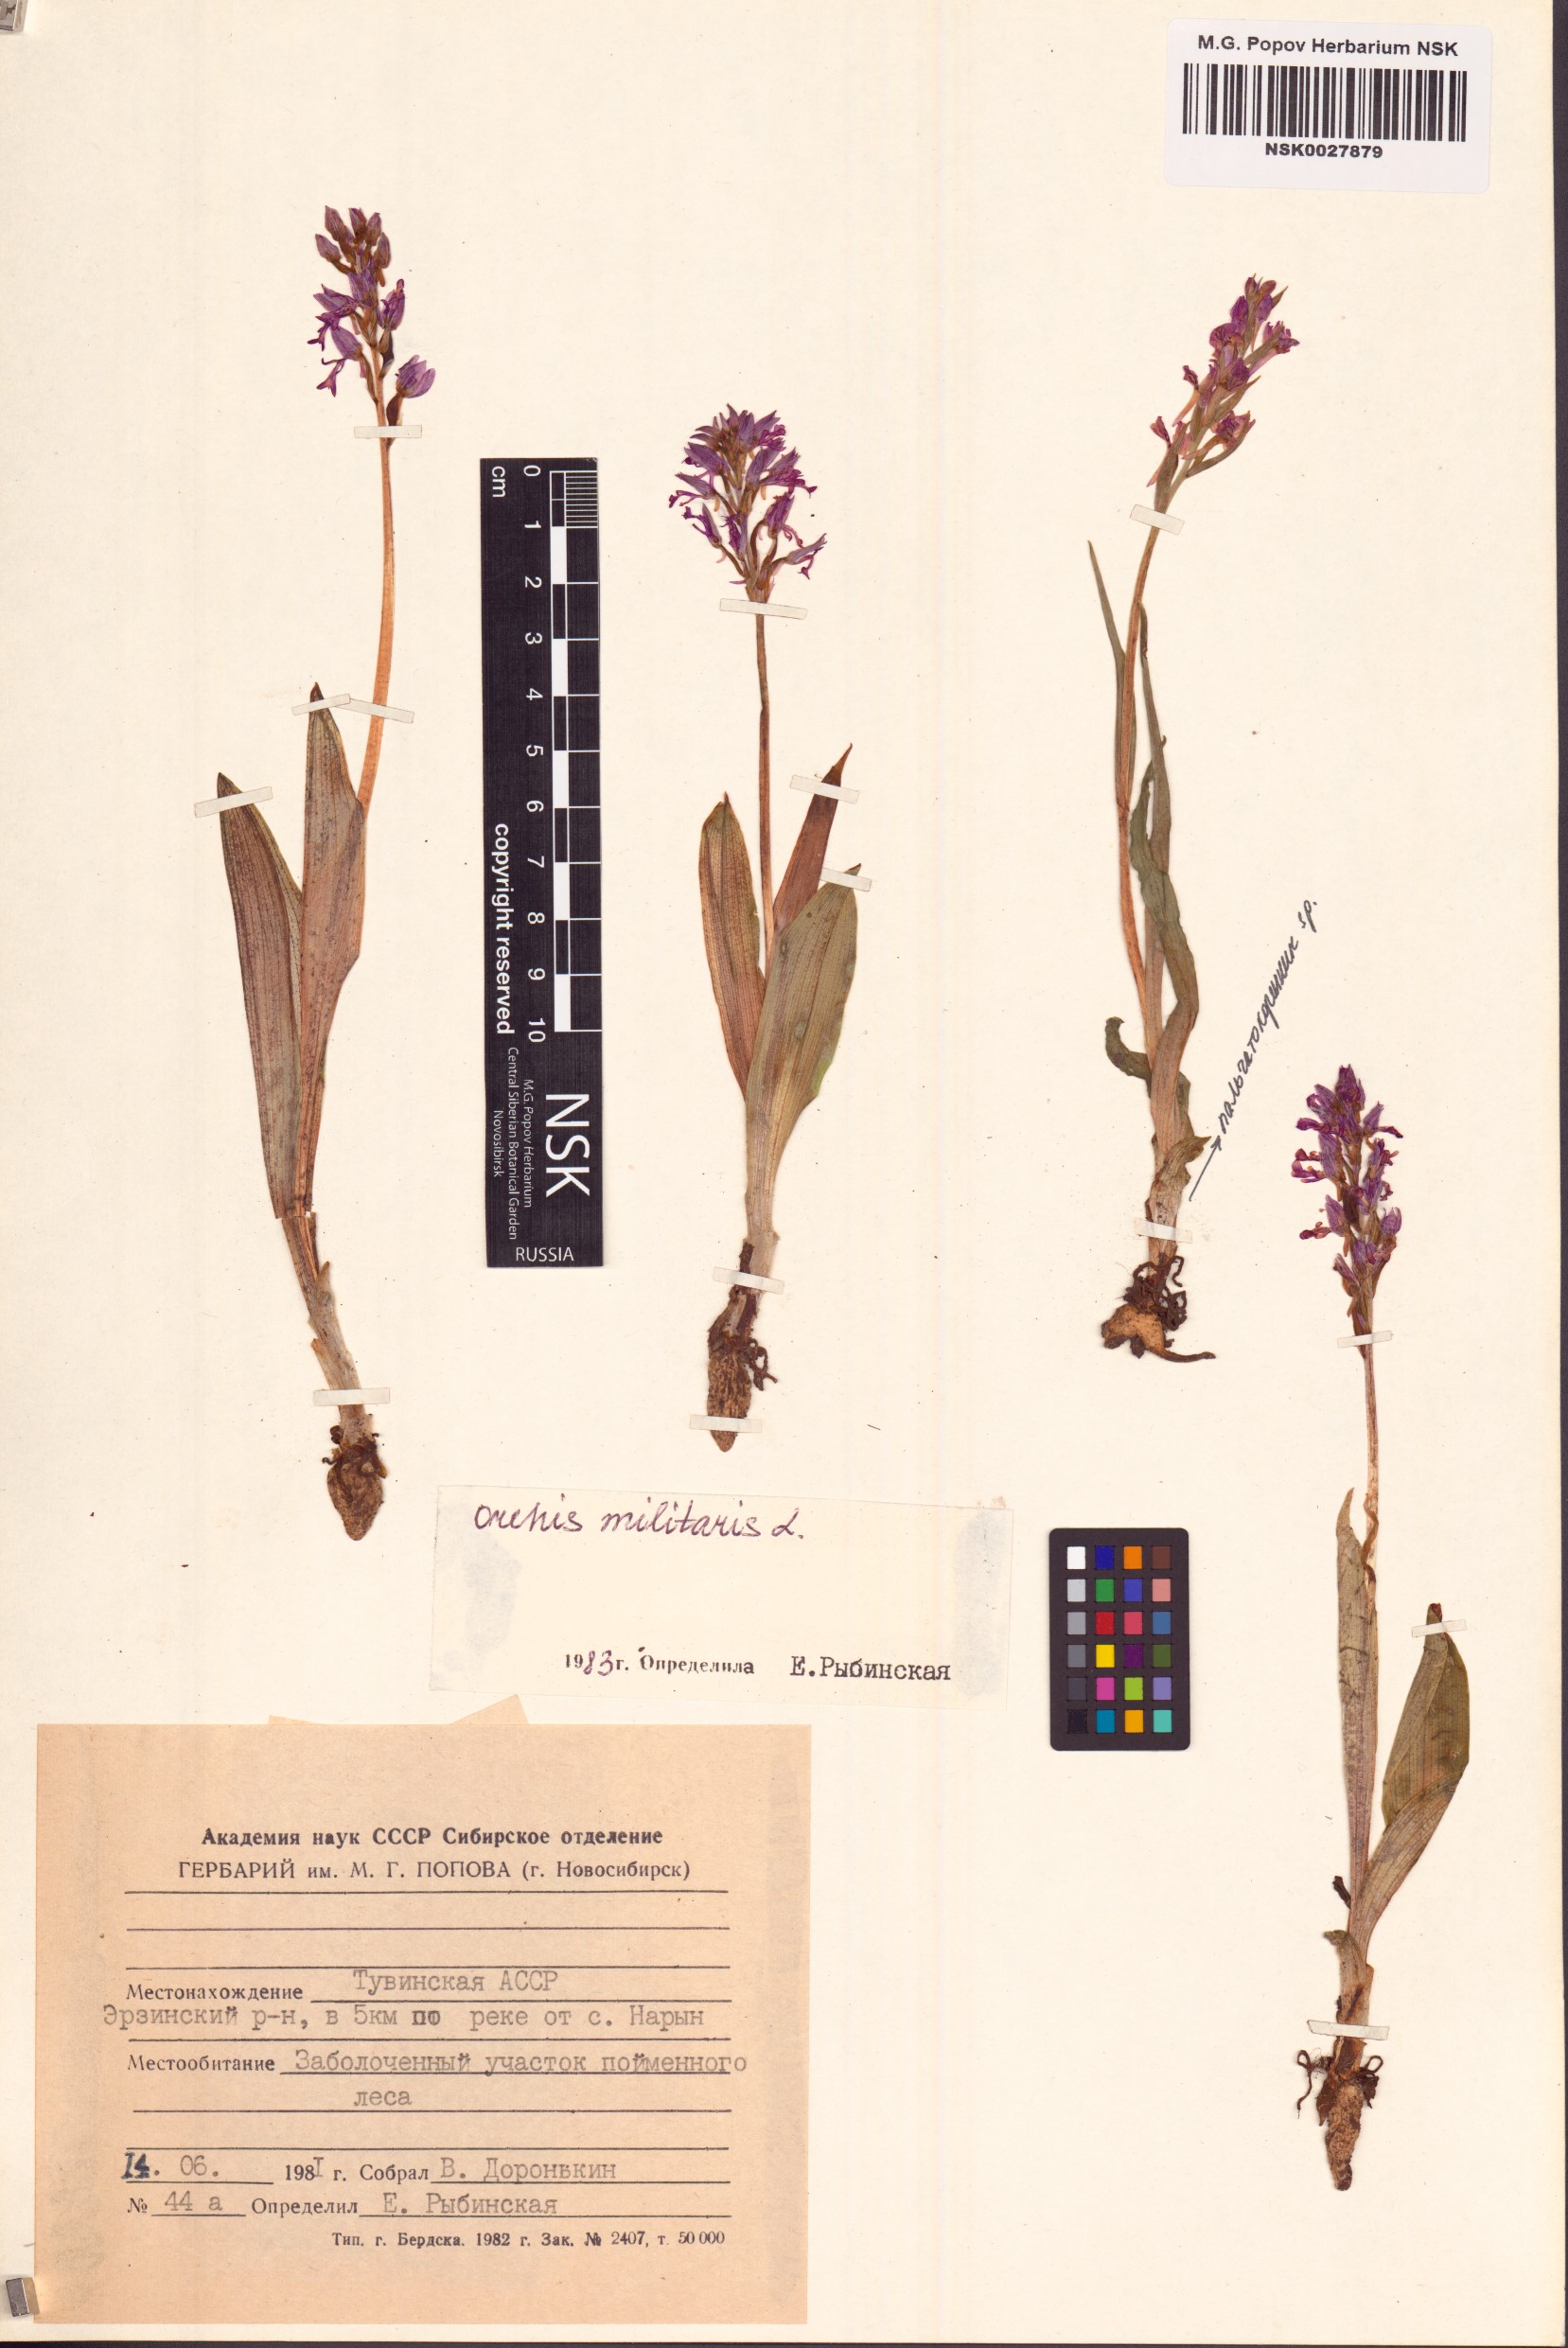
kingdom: Plantae
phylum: Tracheophyta
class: Liliopsida
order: Asparagales
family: Orchidaceae
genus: Orchis
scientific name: Orchis militaris
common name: Military orchid
